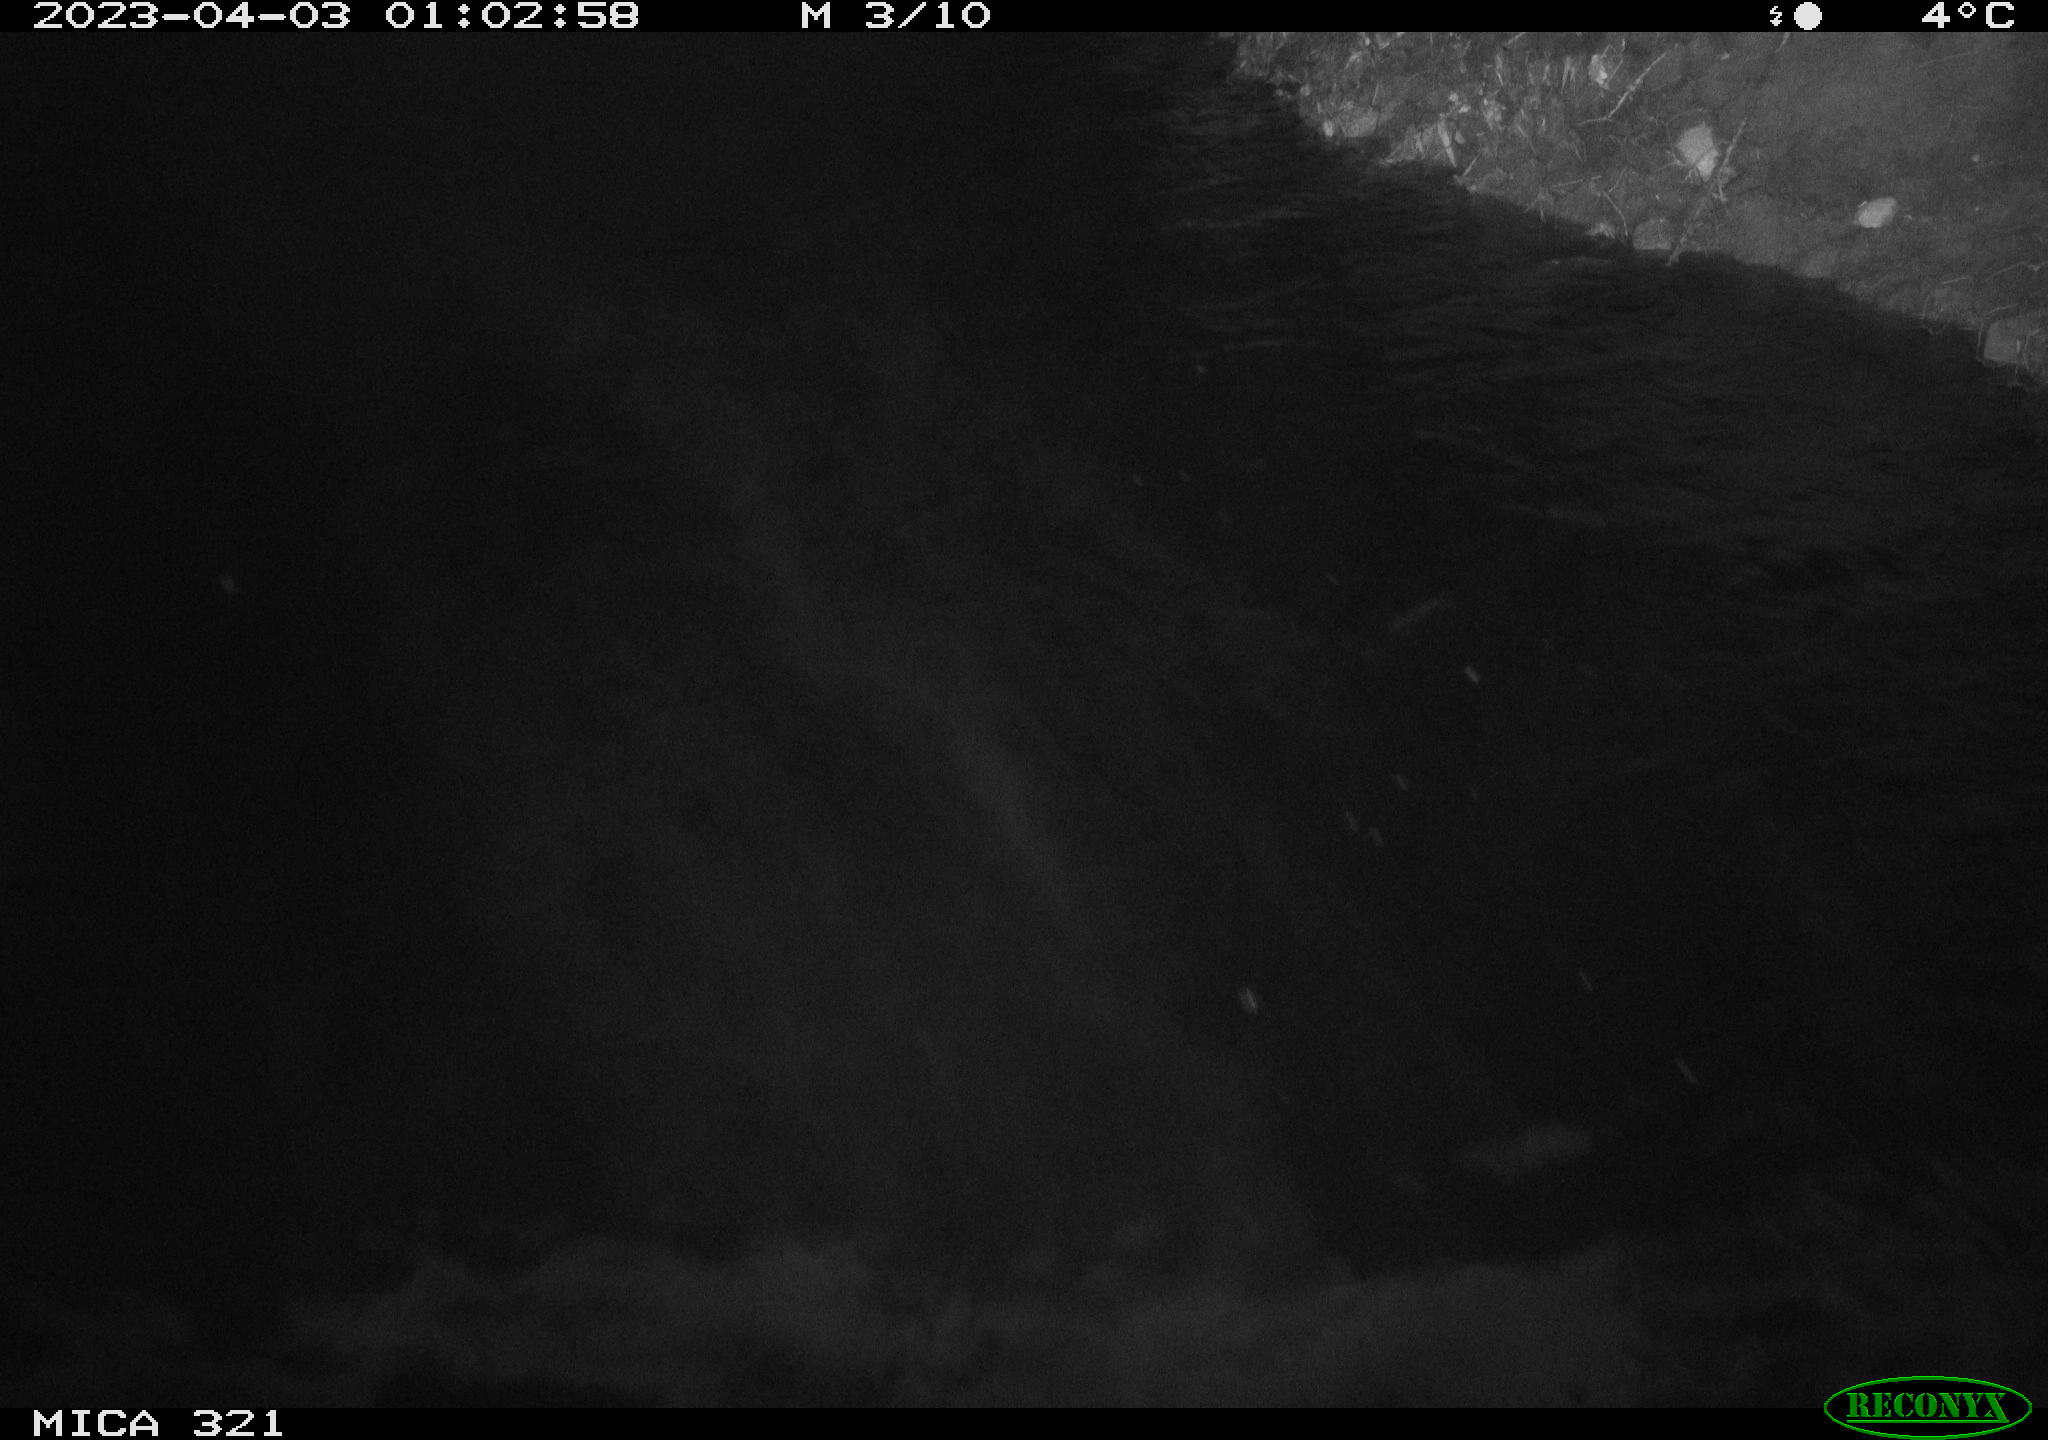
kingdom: Animalia
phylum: Chordata
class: Aves
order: Anseriformes
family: Anatidae
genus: Anas
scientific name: Anas
